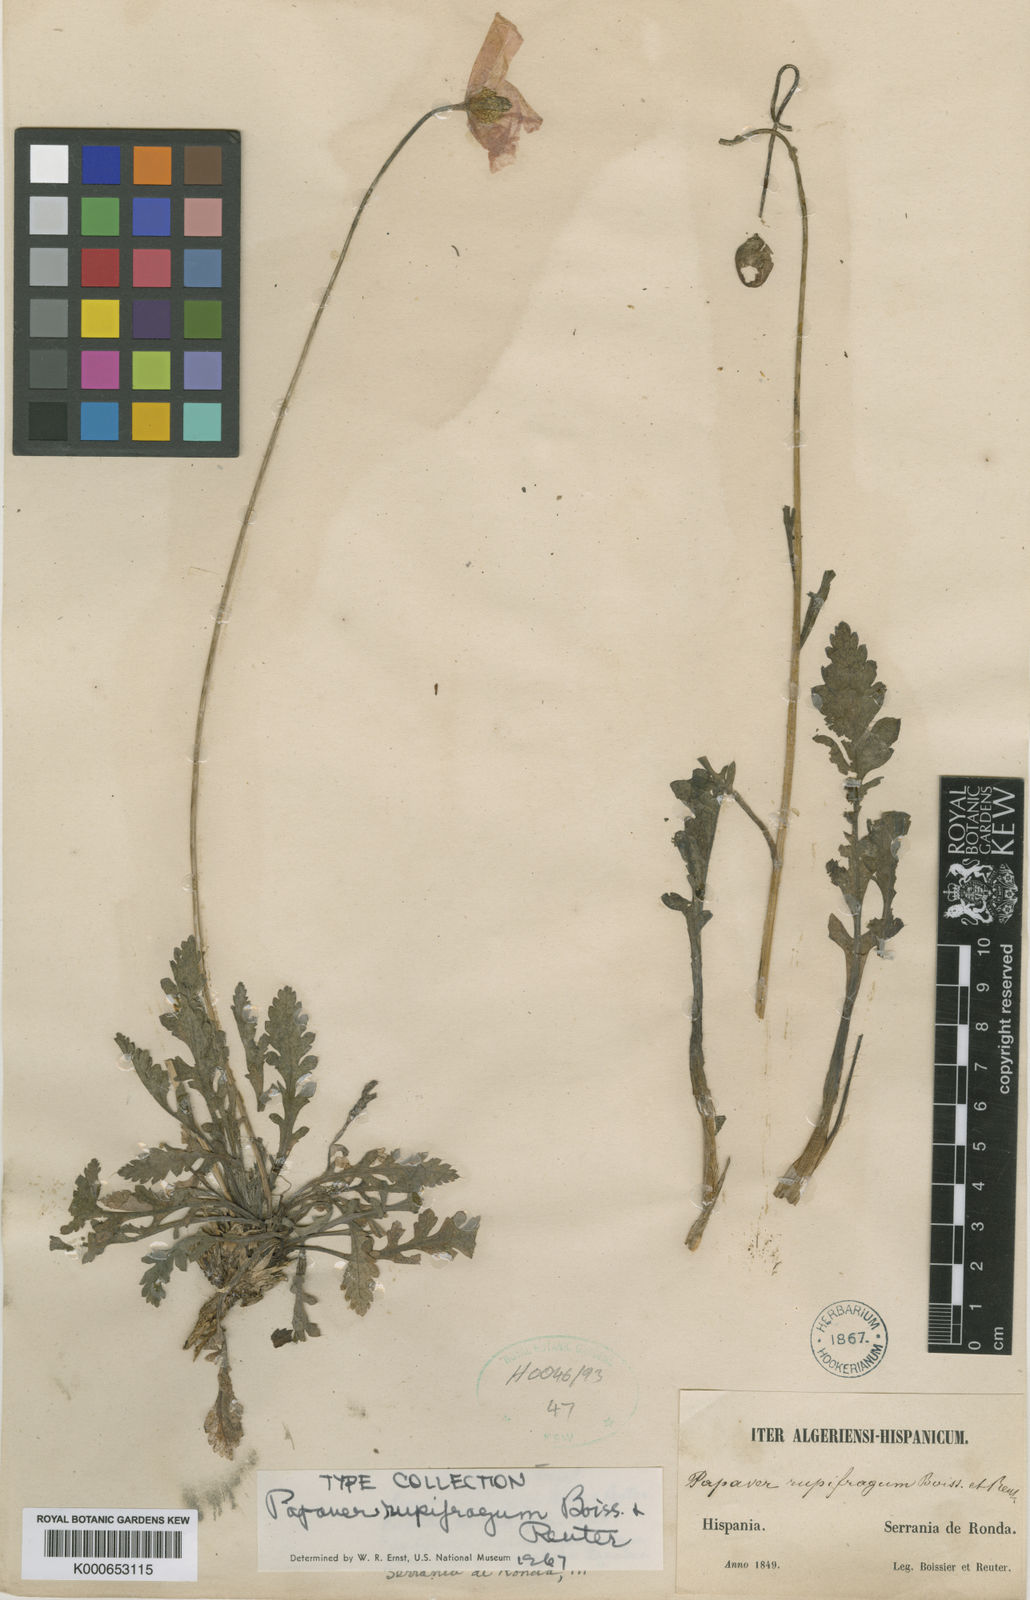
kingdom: Plantae
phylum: Tracheophyta
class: Magnoliopsida
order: Ranunculales
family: Papaveraceae
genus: Papaver
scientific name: Papaver rupifragum
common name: Spanish poppy
